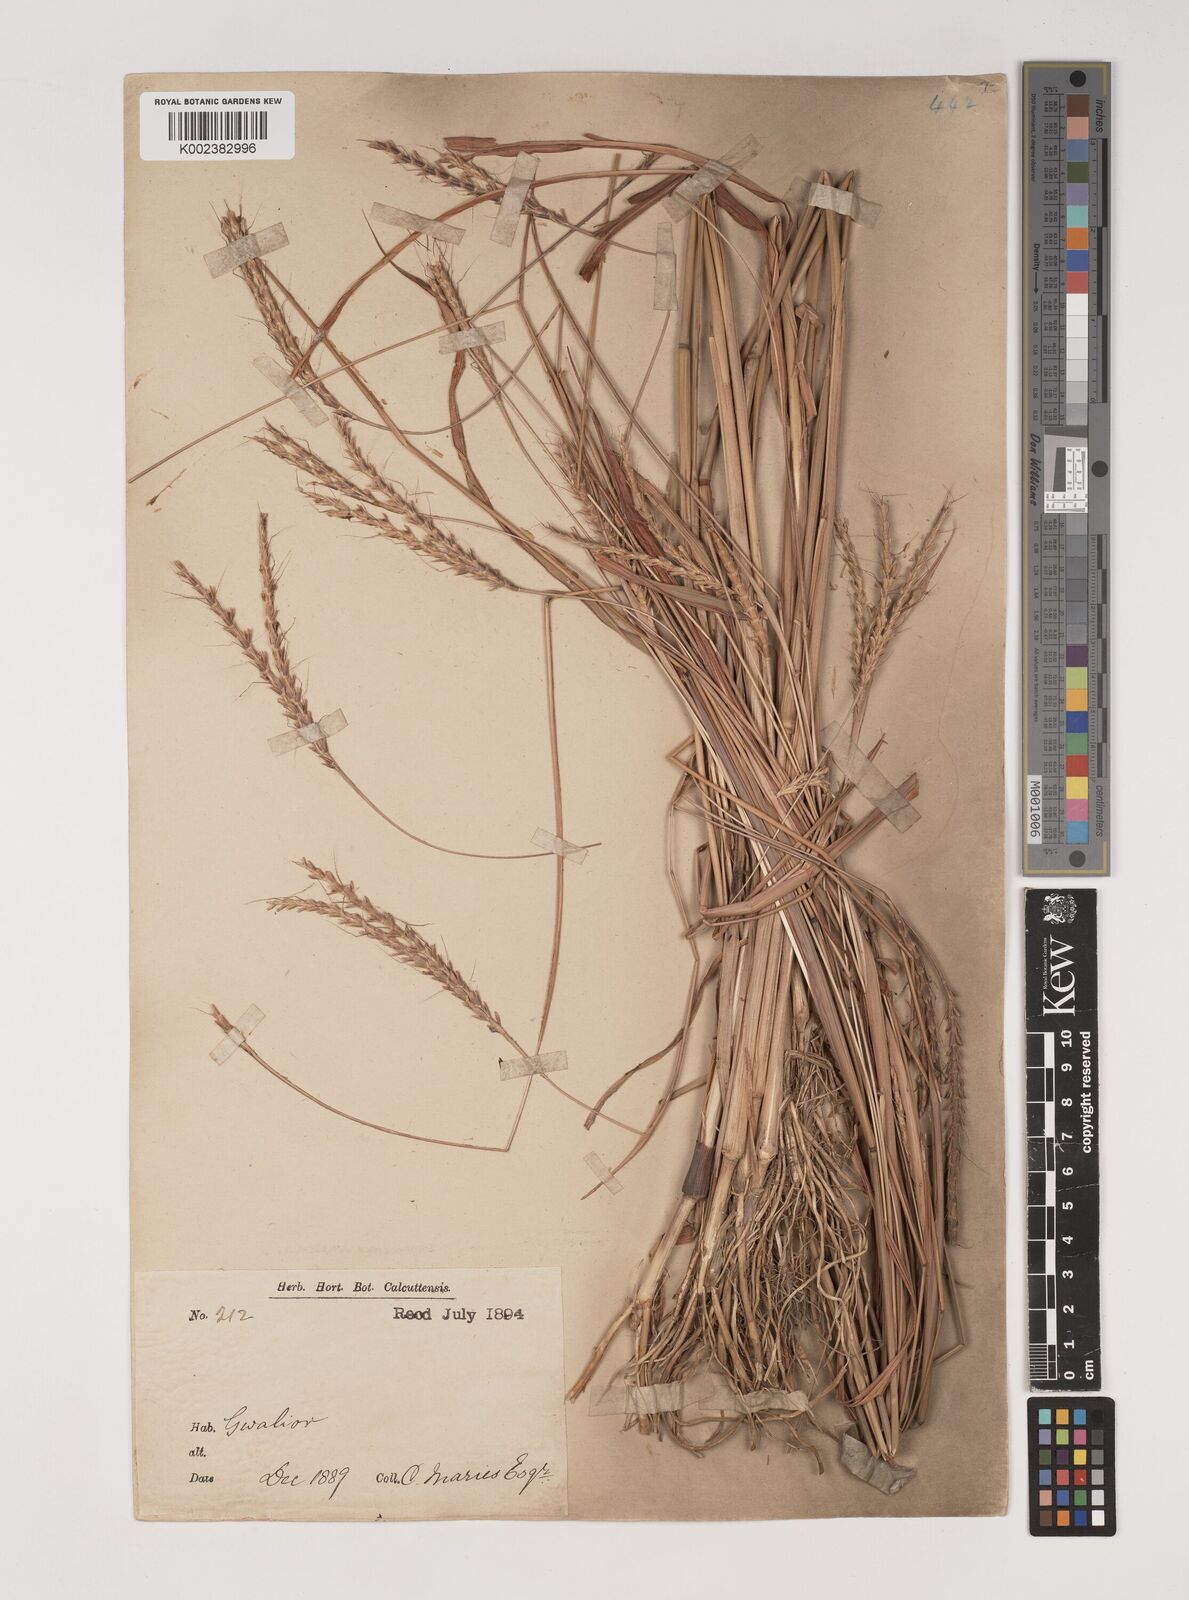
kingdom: Plantae
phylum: Tracheophyta
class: Liliopsida
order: Poales
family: Poaceae
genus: Ischaemum
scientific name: Ischaemum rugosum
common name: Saramatta grass
